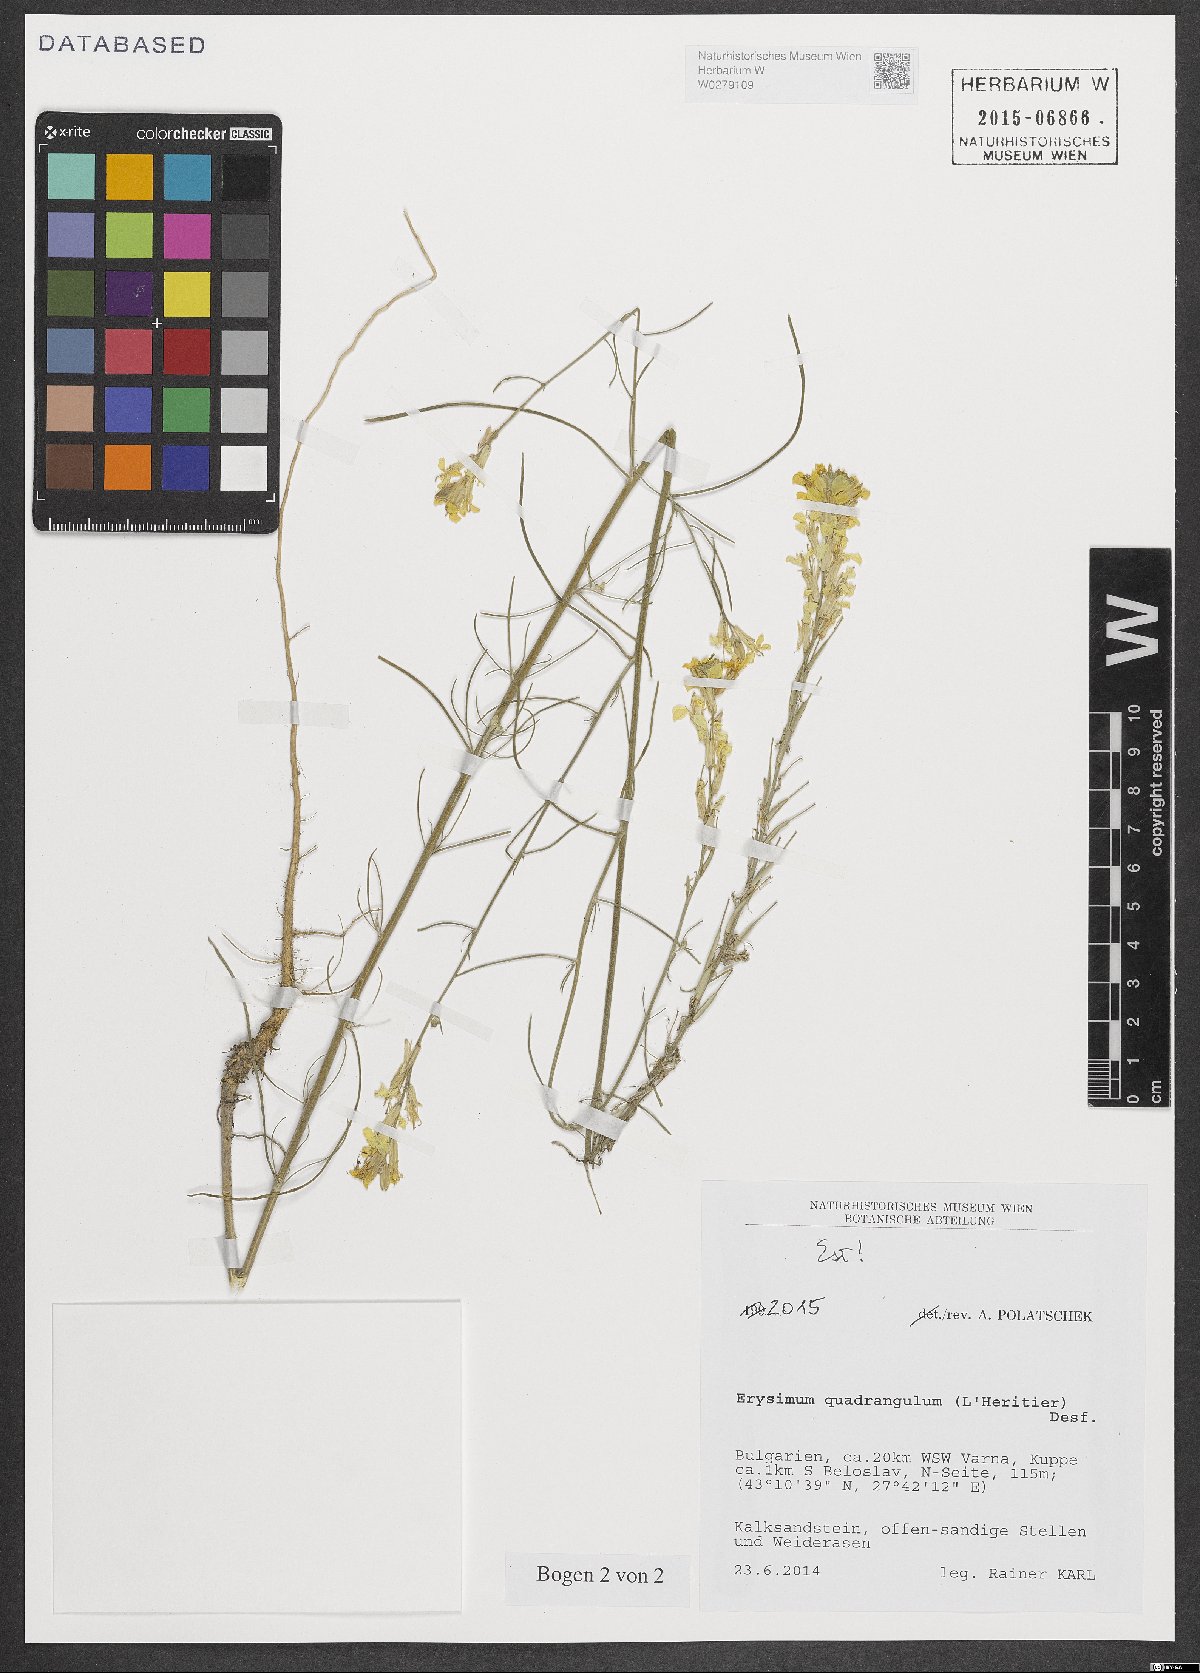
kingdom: Plantae
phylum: Tracheophyta
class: Magnoliopsida
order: Brassicales
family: Brassicaceae
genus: Erysimum
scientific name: Erysimum quadrangulum
